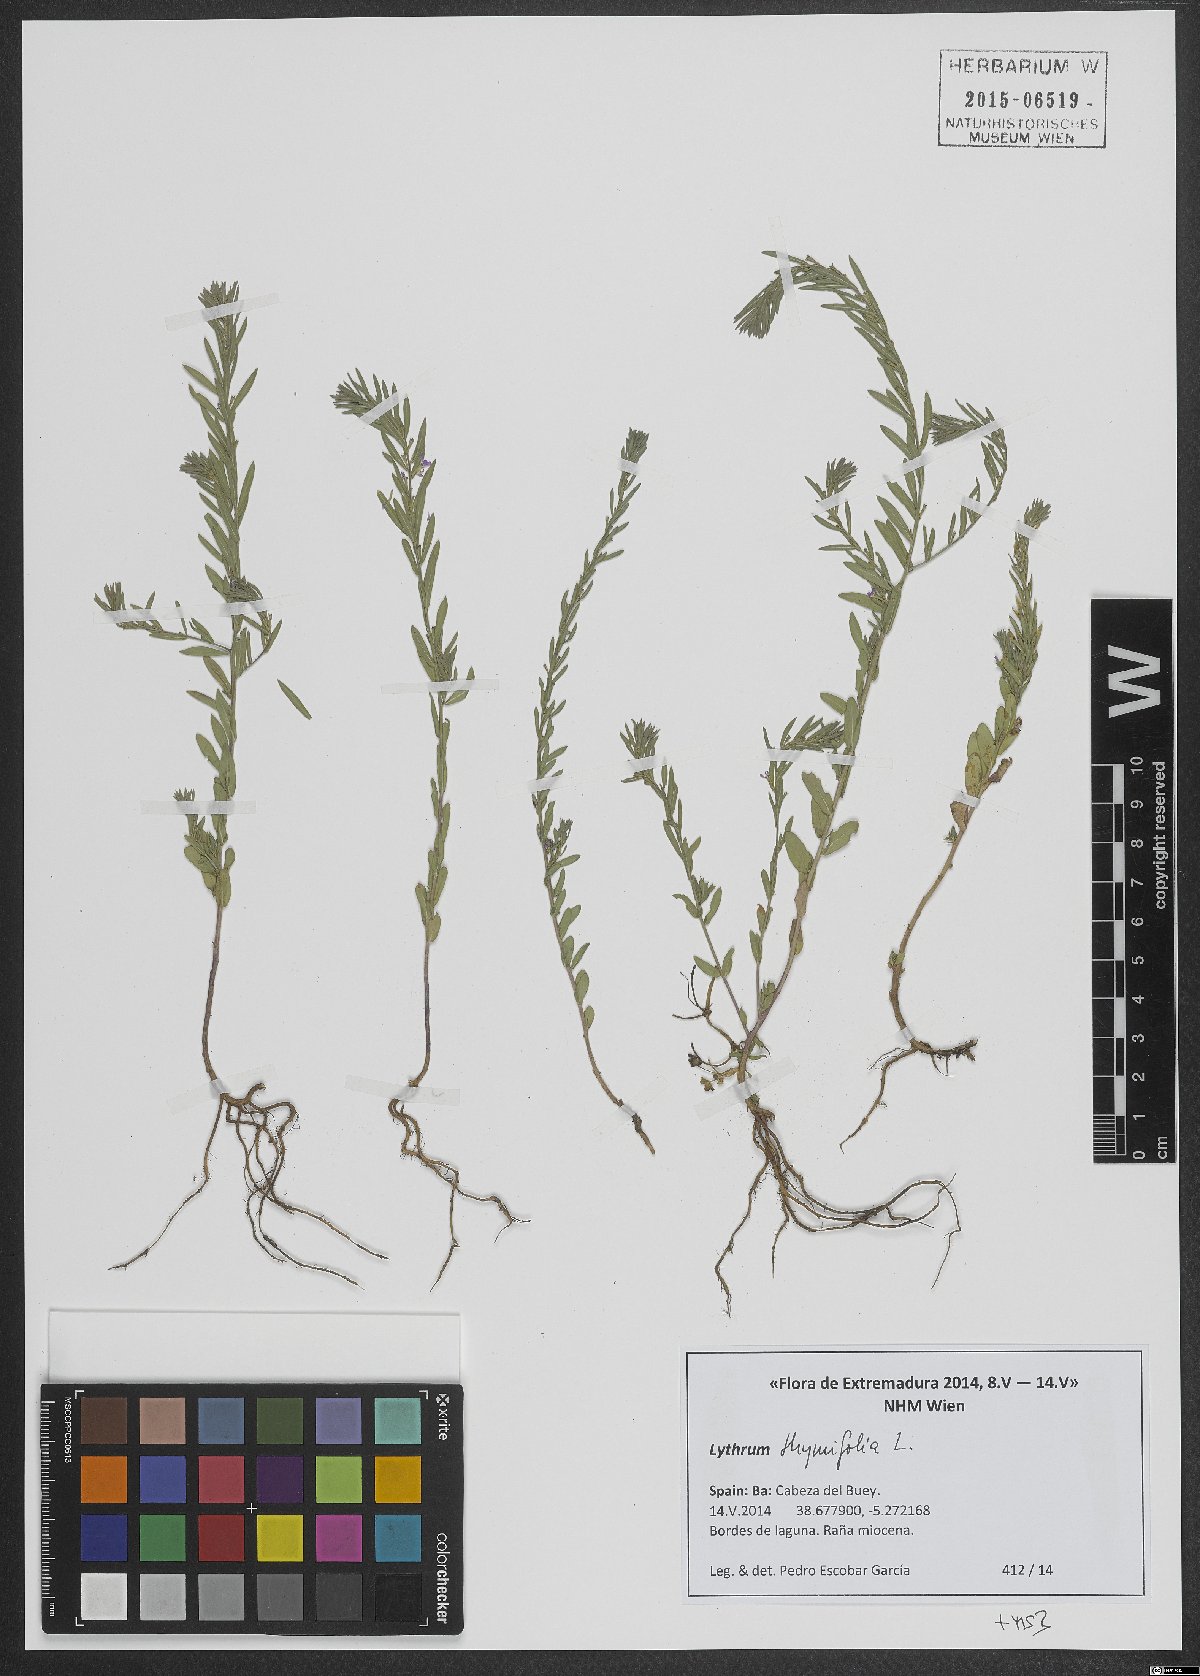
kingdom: Plantae
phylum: Tracheophyta
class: Magnoliopsida
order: Myrtales
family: Lythraceae
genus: Lythrum
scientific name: Lythrum thymifolia
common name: Thymeleaf loosestrife
